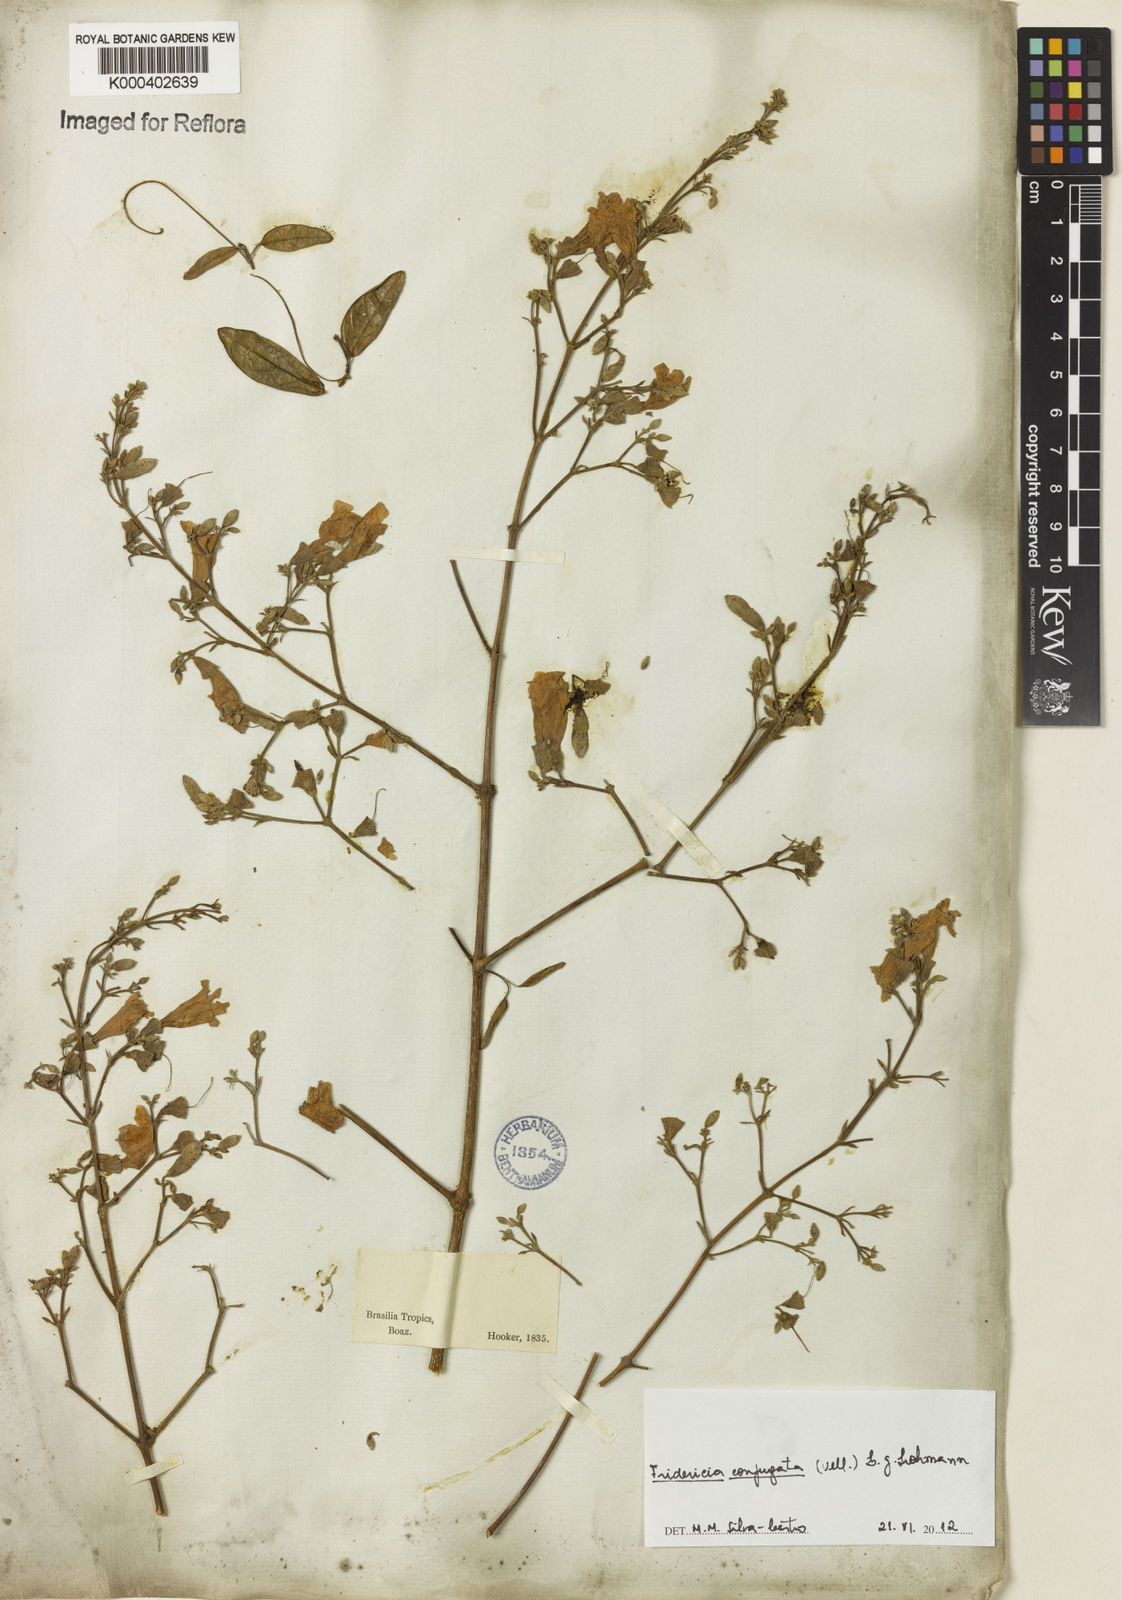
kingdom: Plantae
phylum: Tracheophyta
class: Magnoliopsida
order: Lamiales
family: Bignoniaceae
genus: Fridericia
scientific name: Fridericia conjugata
